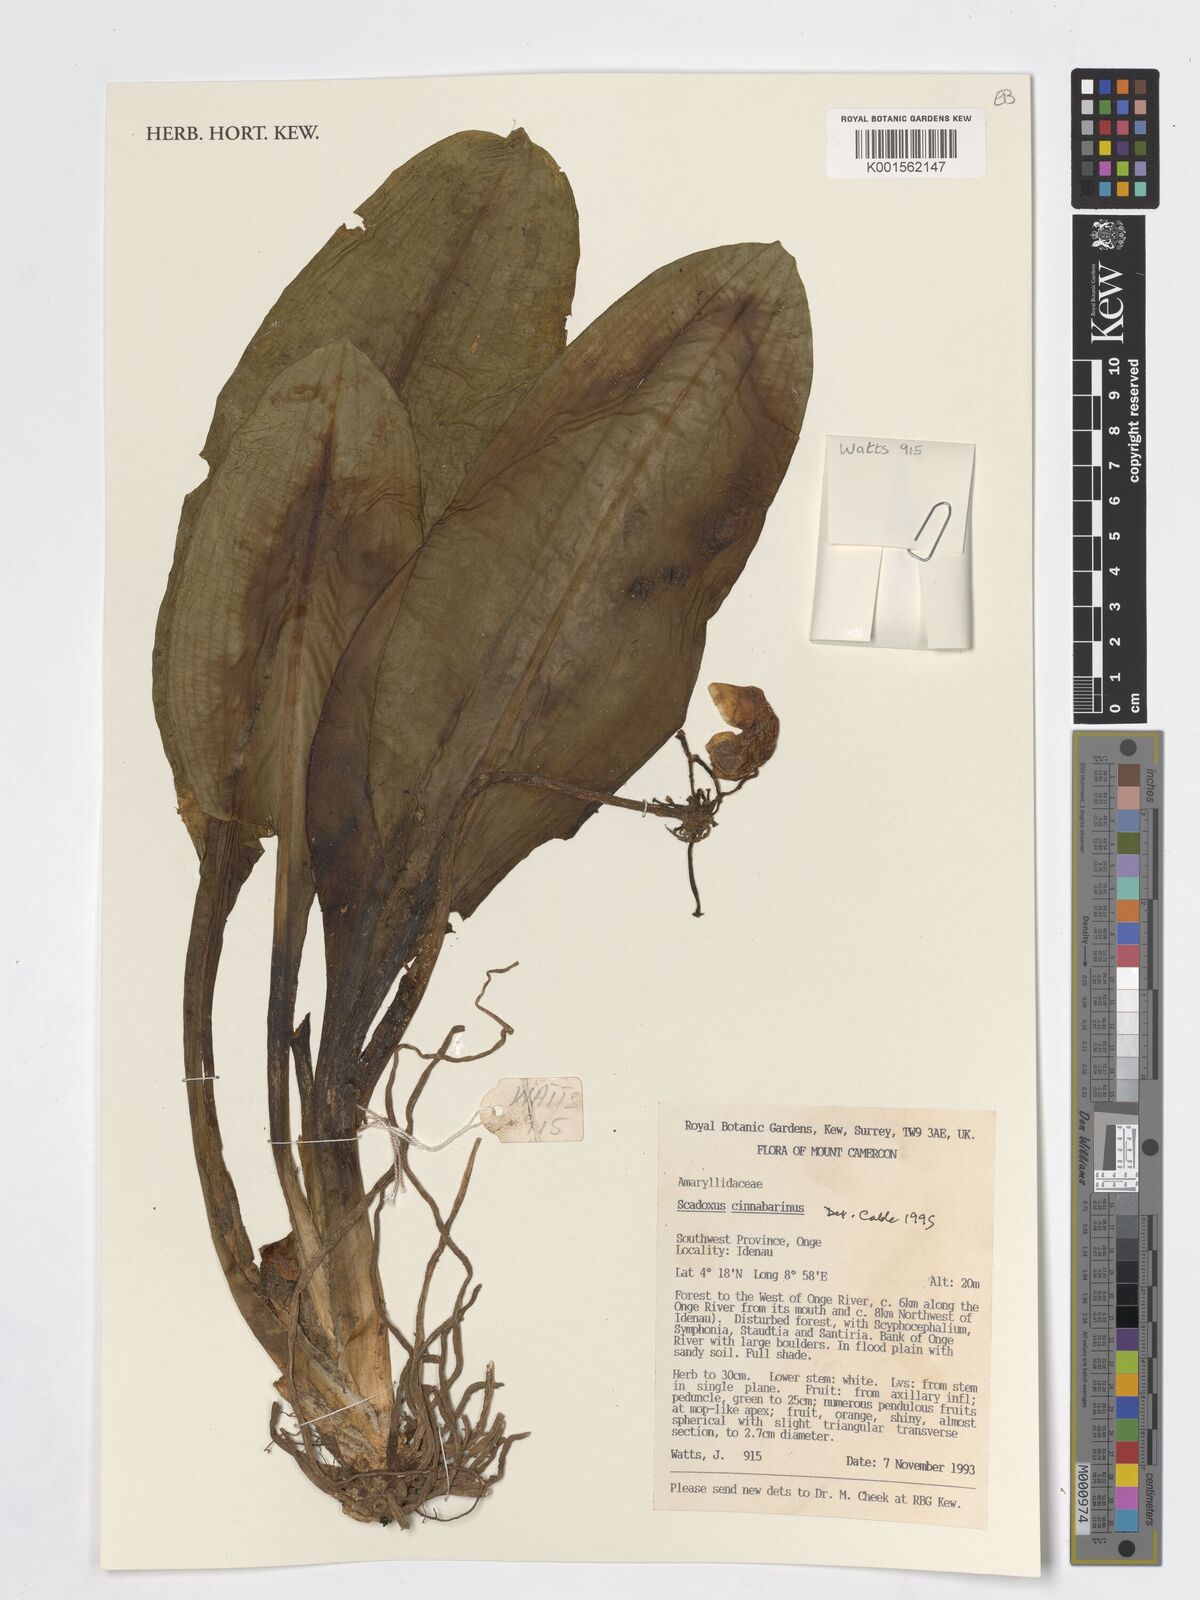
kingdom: Plantae
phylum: Tracheophyta
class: Liliopsida
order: Asparagales
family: Amaryllidaceae
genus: Scadoxus
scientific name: Scadoxus cinnabarinus
